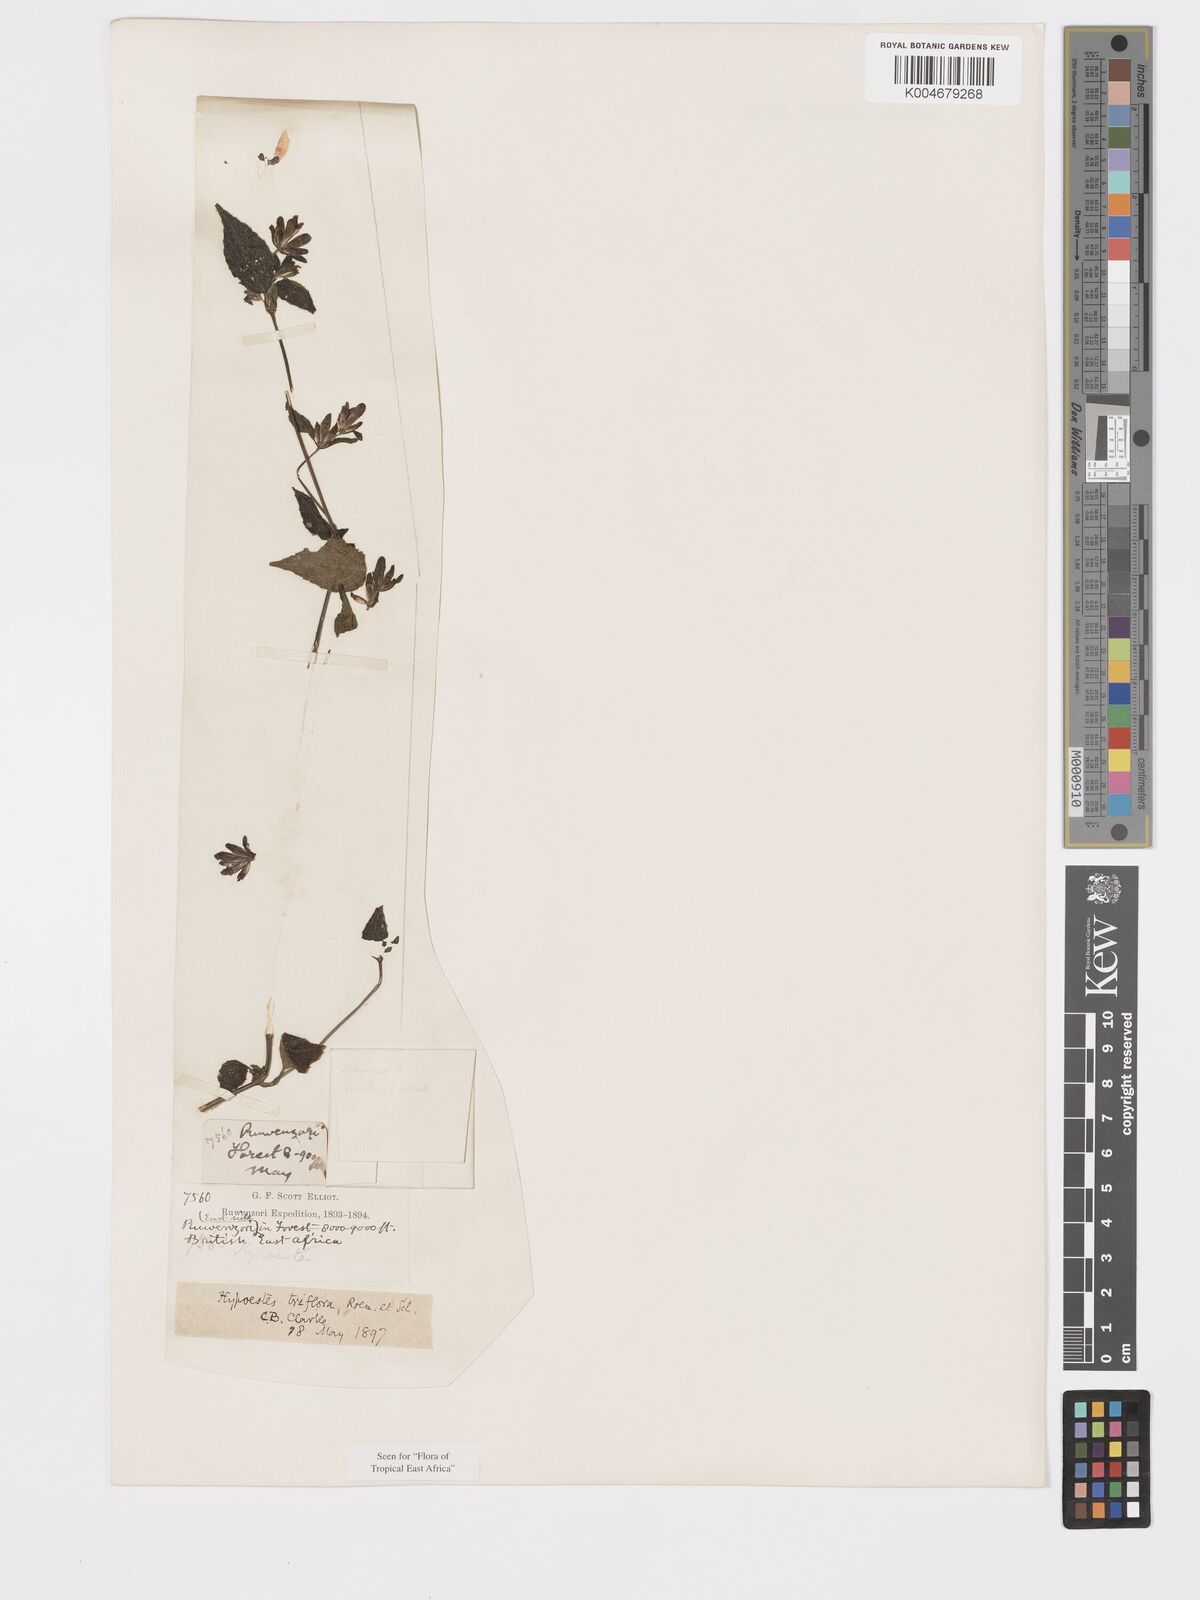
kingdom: Plantae
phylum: Tracheophyta
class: Magnoliopsida
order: Lamiales
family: Acanthaceae
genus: Hypoestes
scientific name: Hypoestes triflora
